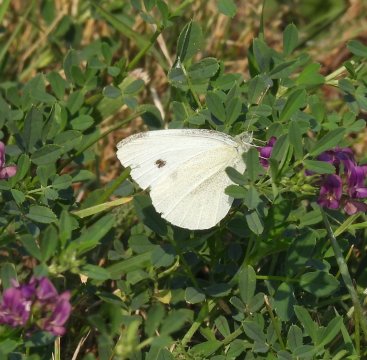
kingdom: Animalia
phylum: Arthropoda
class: Insecta
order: Lepidoptera
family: Pieridae
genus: Pieris
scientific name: Pieris rapae
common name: Cabbage White
